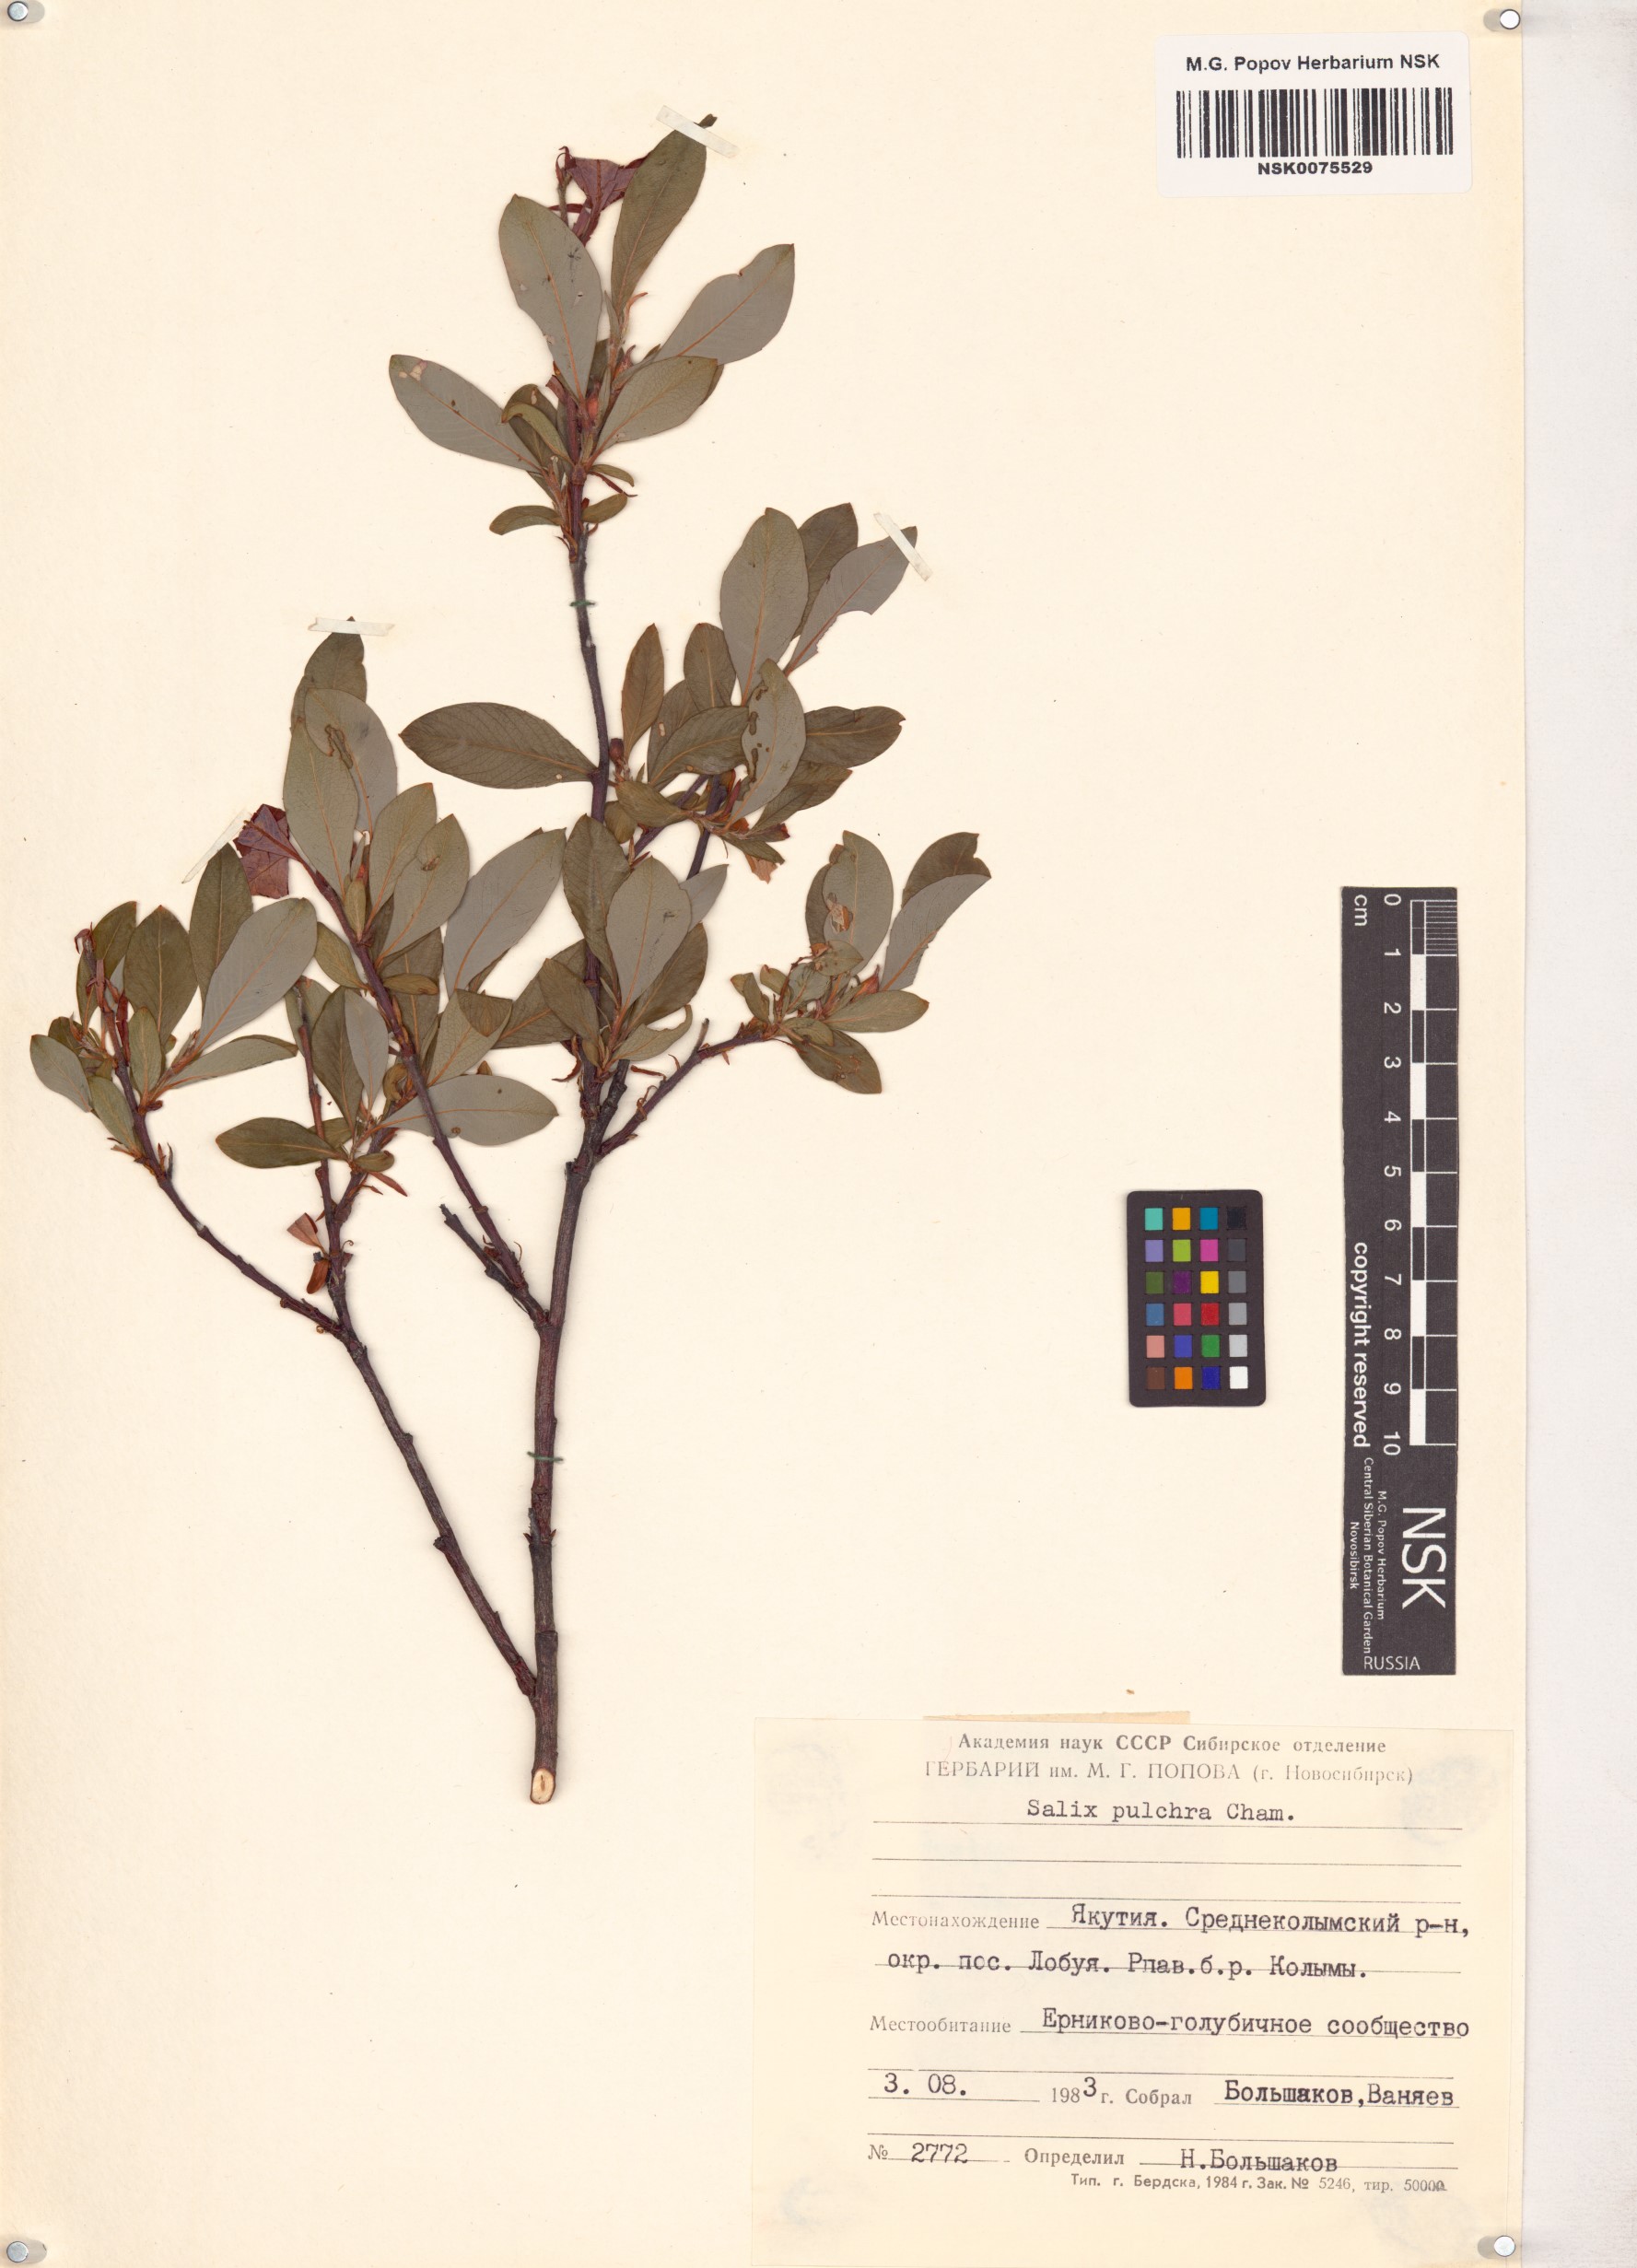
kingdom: Plantae
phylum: Tracheophyta
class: Magnoliopsida
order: Malpighiales
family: Salicaceae
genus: Salix
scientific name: Salix pulchra
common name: Diamond-leaved willow
